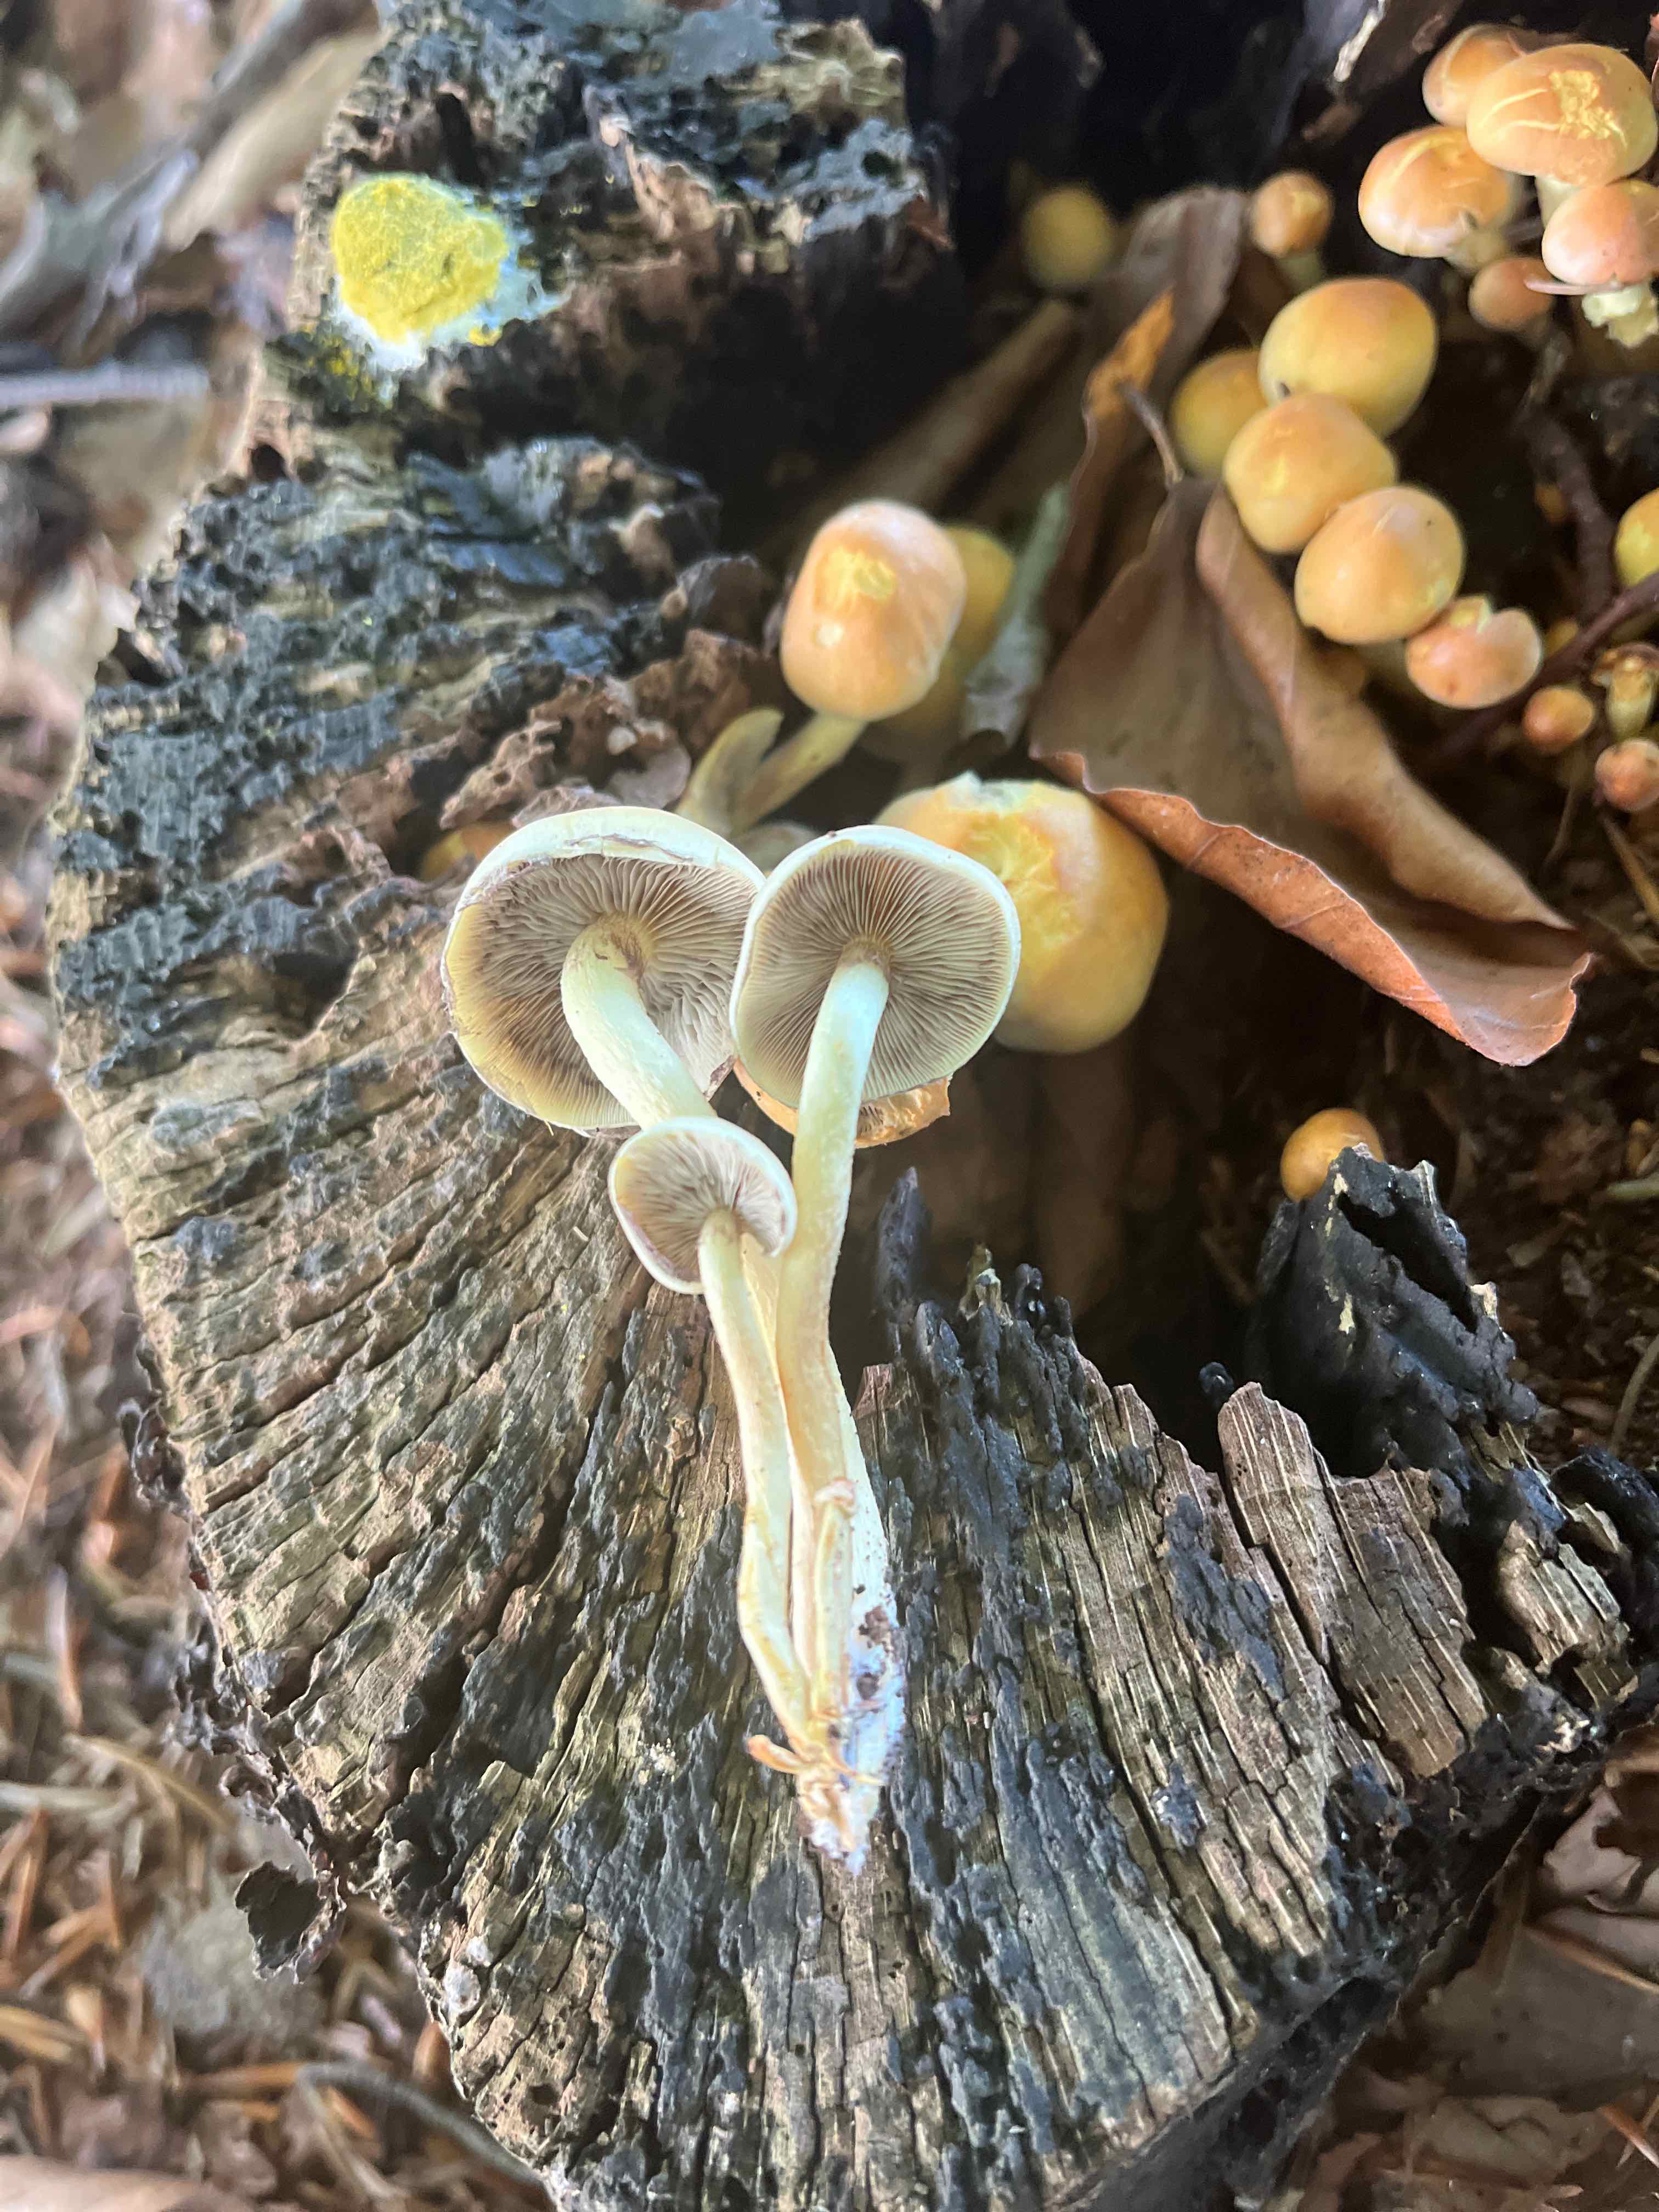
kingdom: Fungi
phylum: Basidiomycota
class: Agaricomycetes
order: Agaricales
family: Strophariaceae
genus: Hypholoma
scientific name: Hypholoma fasciculare
